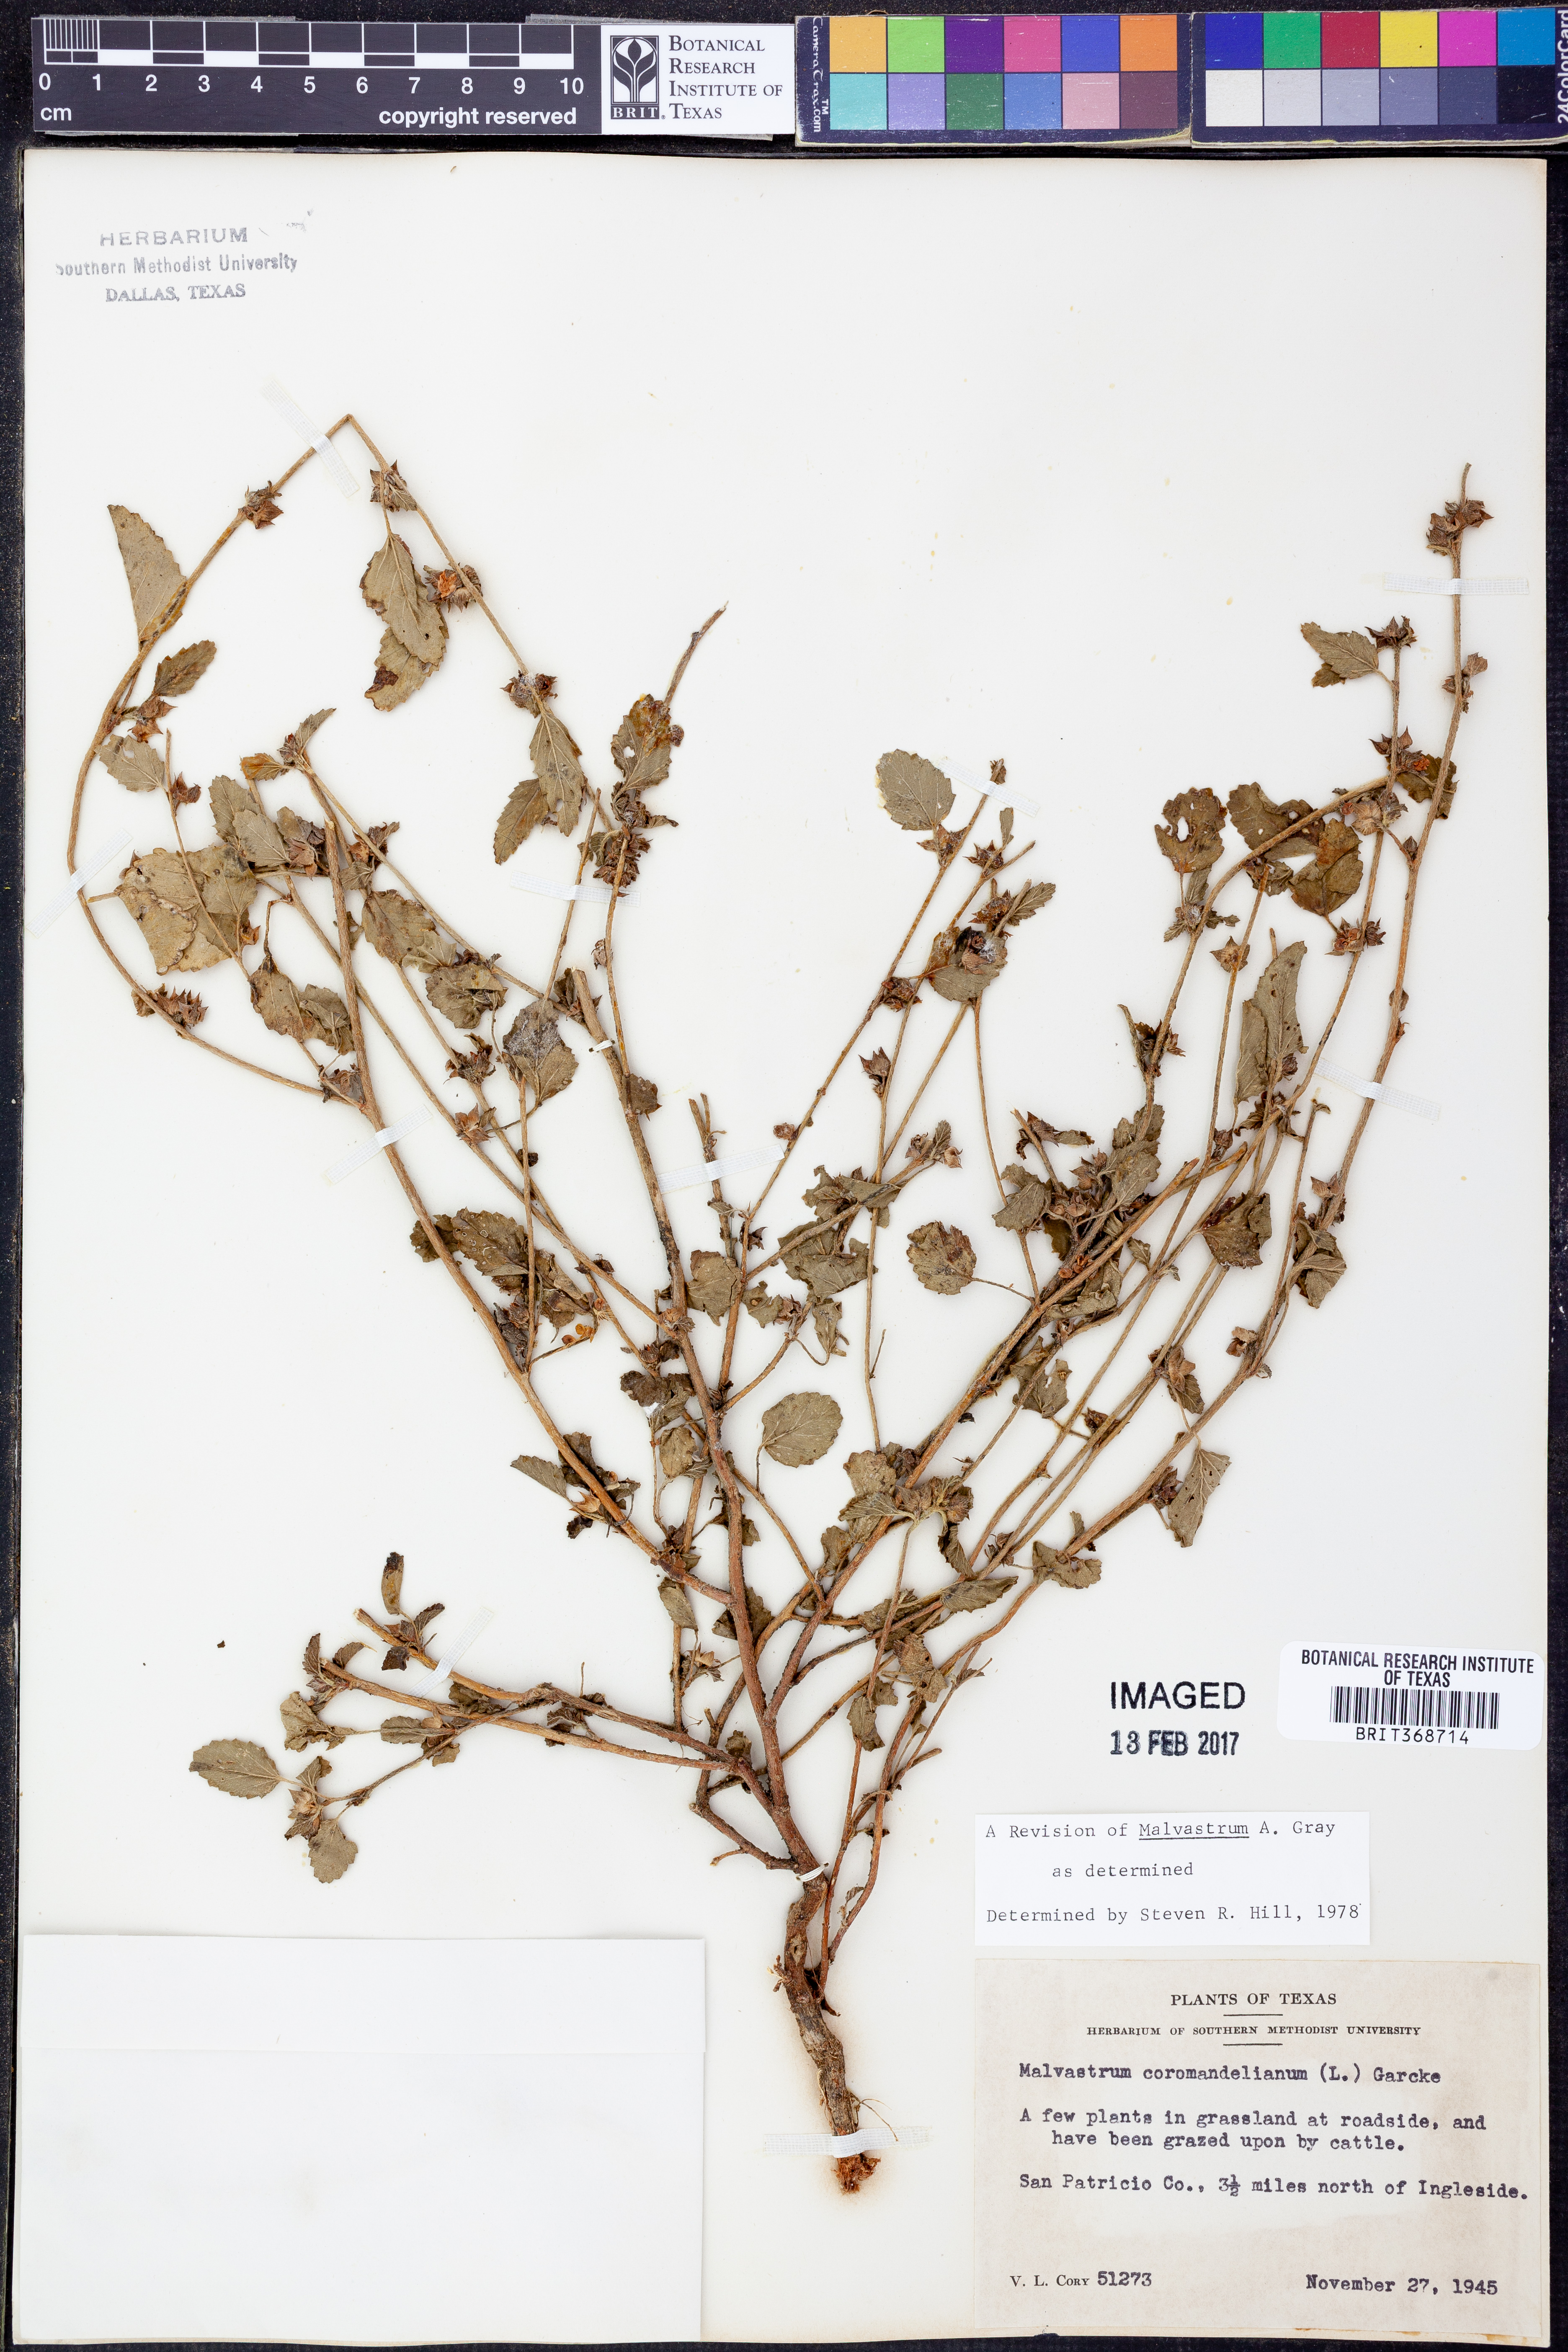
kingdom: Plantae
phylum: Tracheophyta
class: Magnoliopsida
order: Malvales
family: Malvaceae
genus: Malvastrum
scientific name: Malvastrum coromandelianum
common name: Threelobe false mallow
